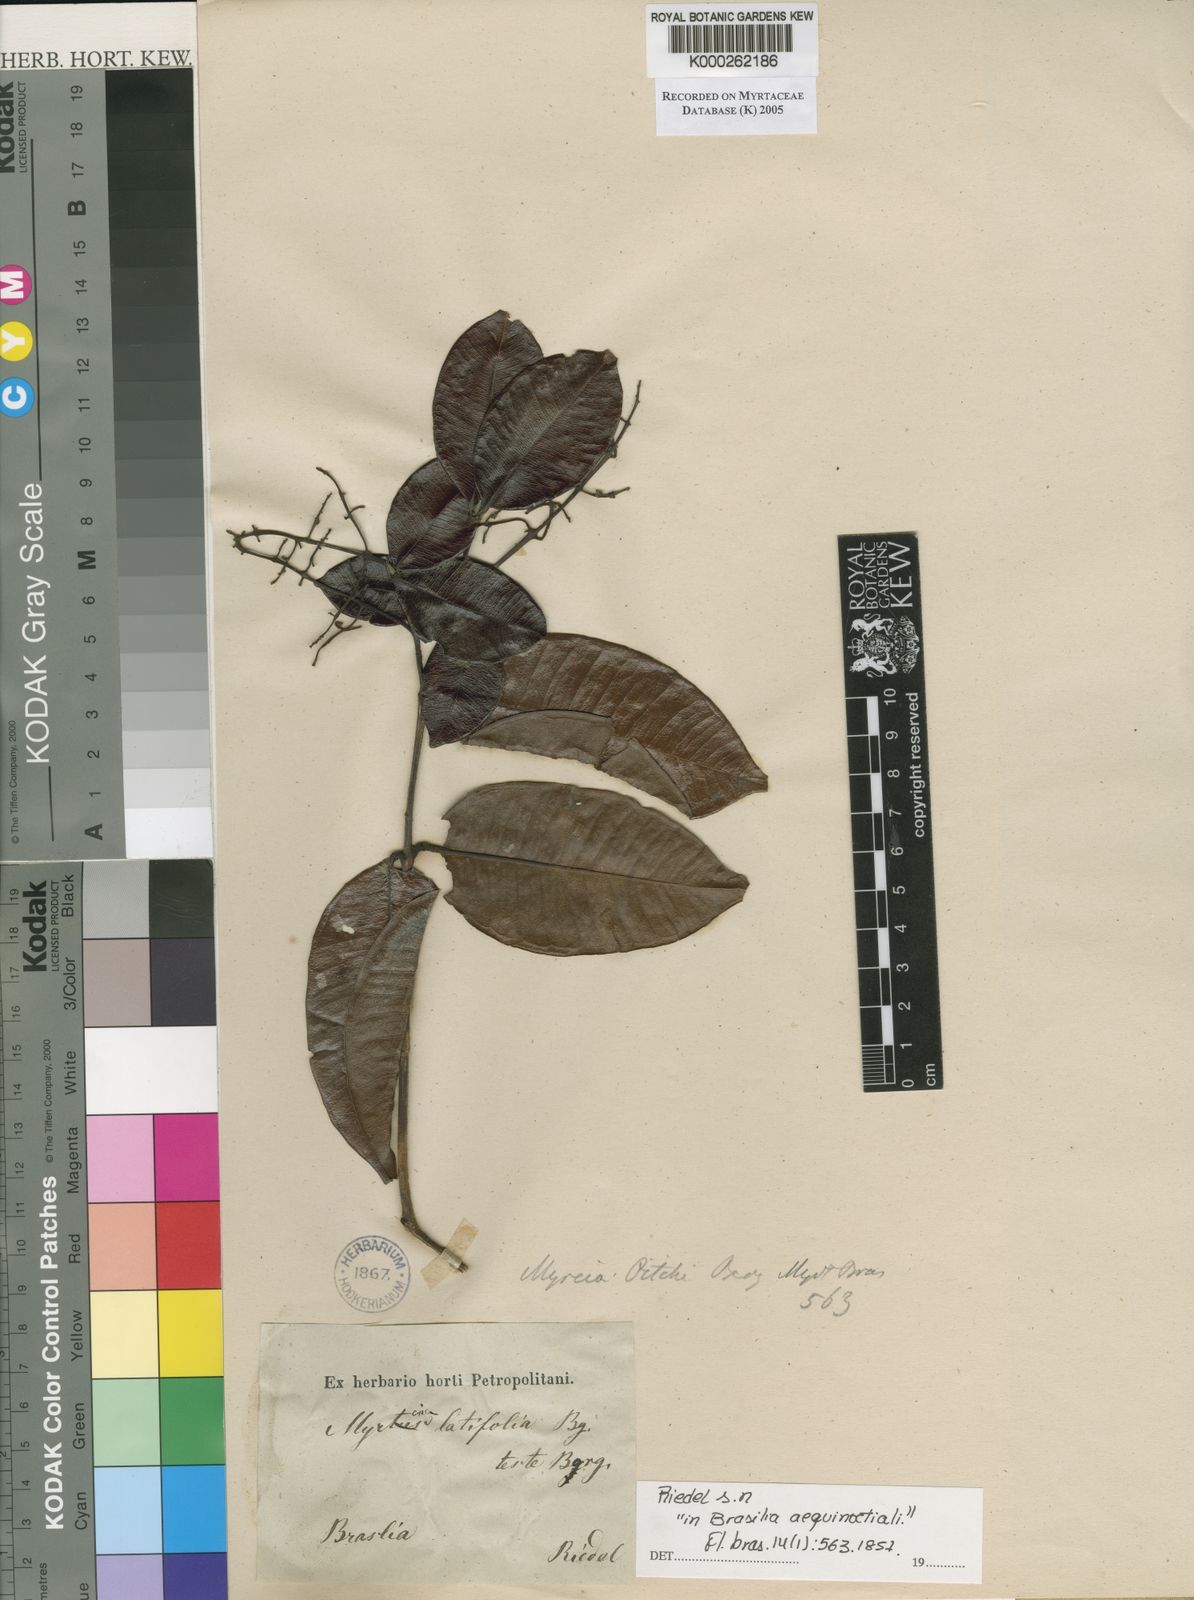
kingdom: Plantae
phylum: Tracheophyta
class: Magnoliopsida
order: Myrtales
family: Myrtaceae
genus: Myrcia
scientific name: Myrcia amazonica
